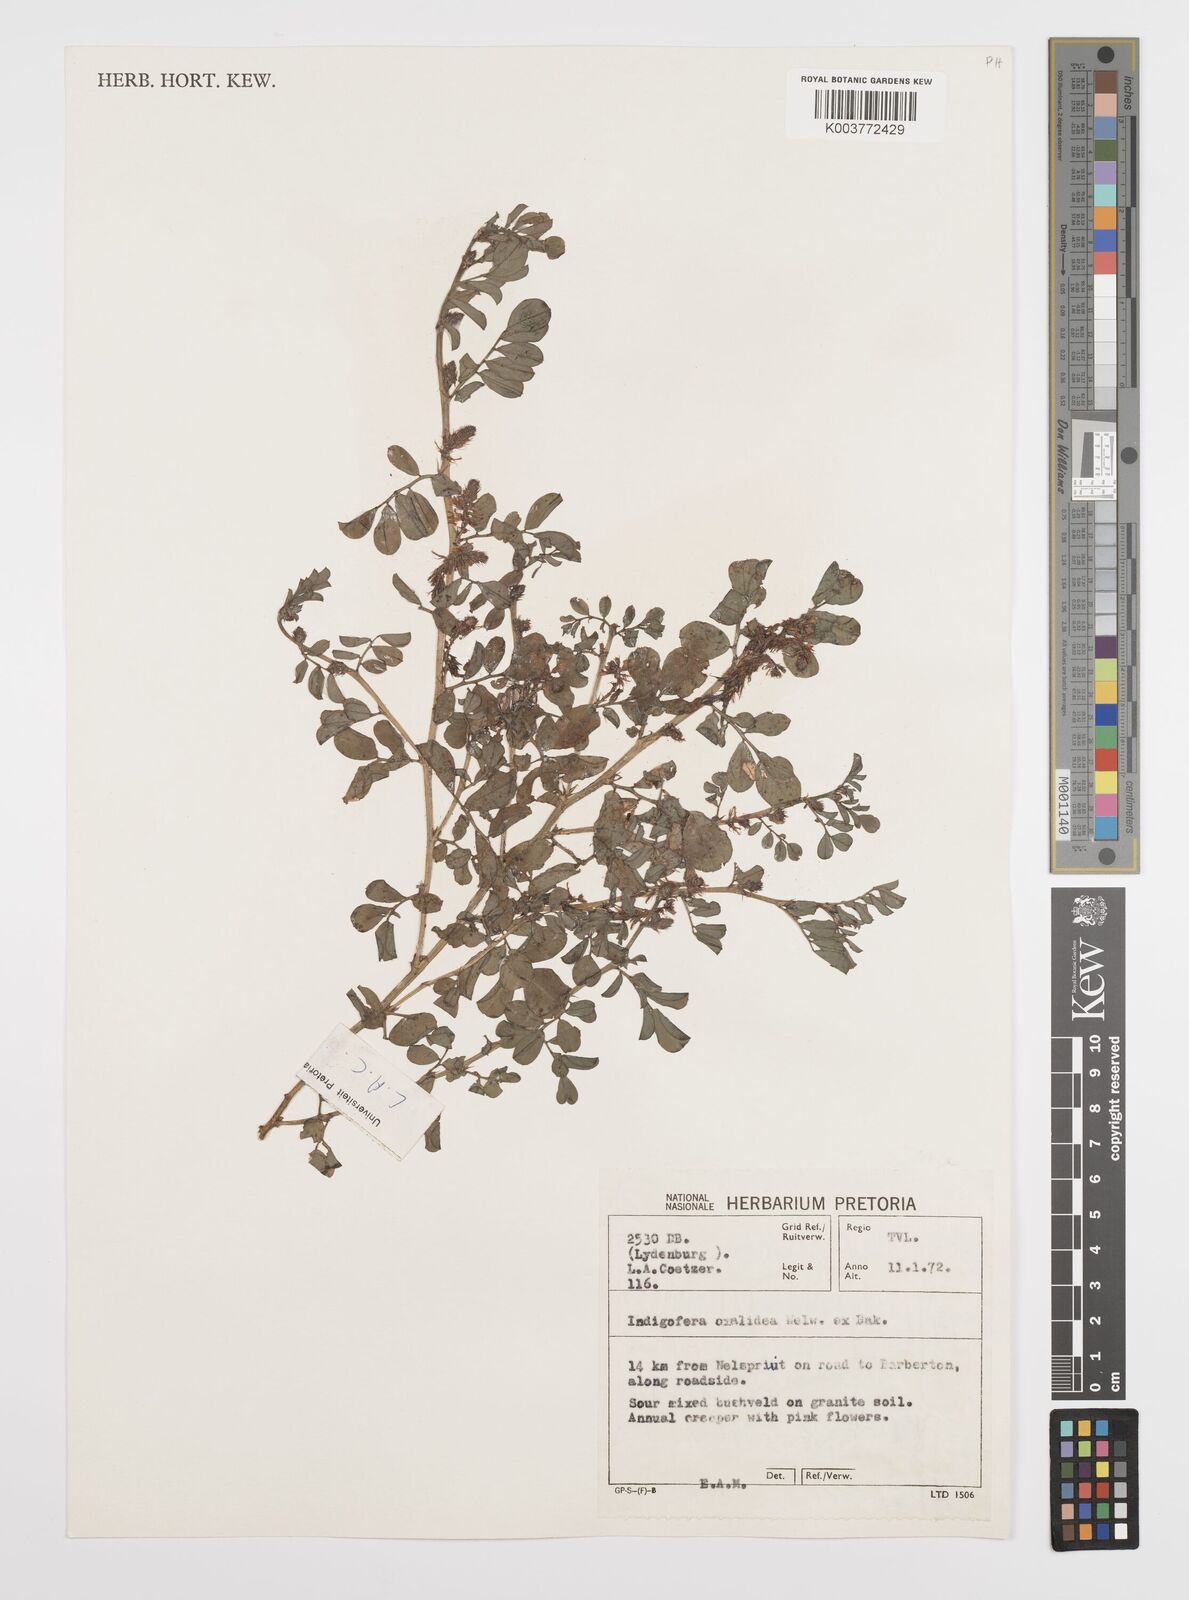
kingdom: Plantae
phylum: Tracheophyta
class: Magnoliopsida
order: Fabales
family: Fabaceae
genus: Indigofera
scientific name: Indigofera oxalidea
